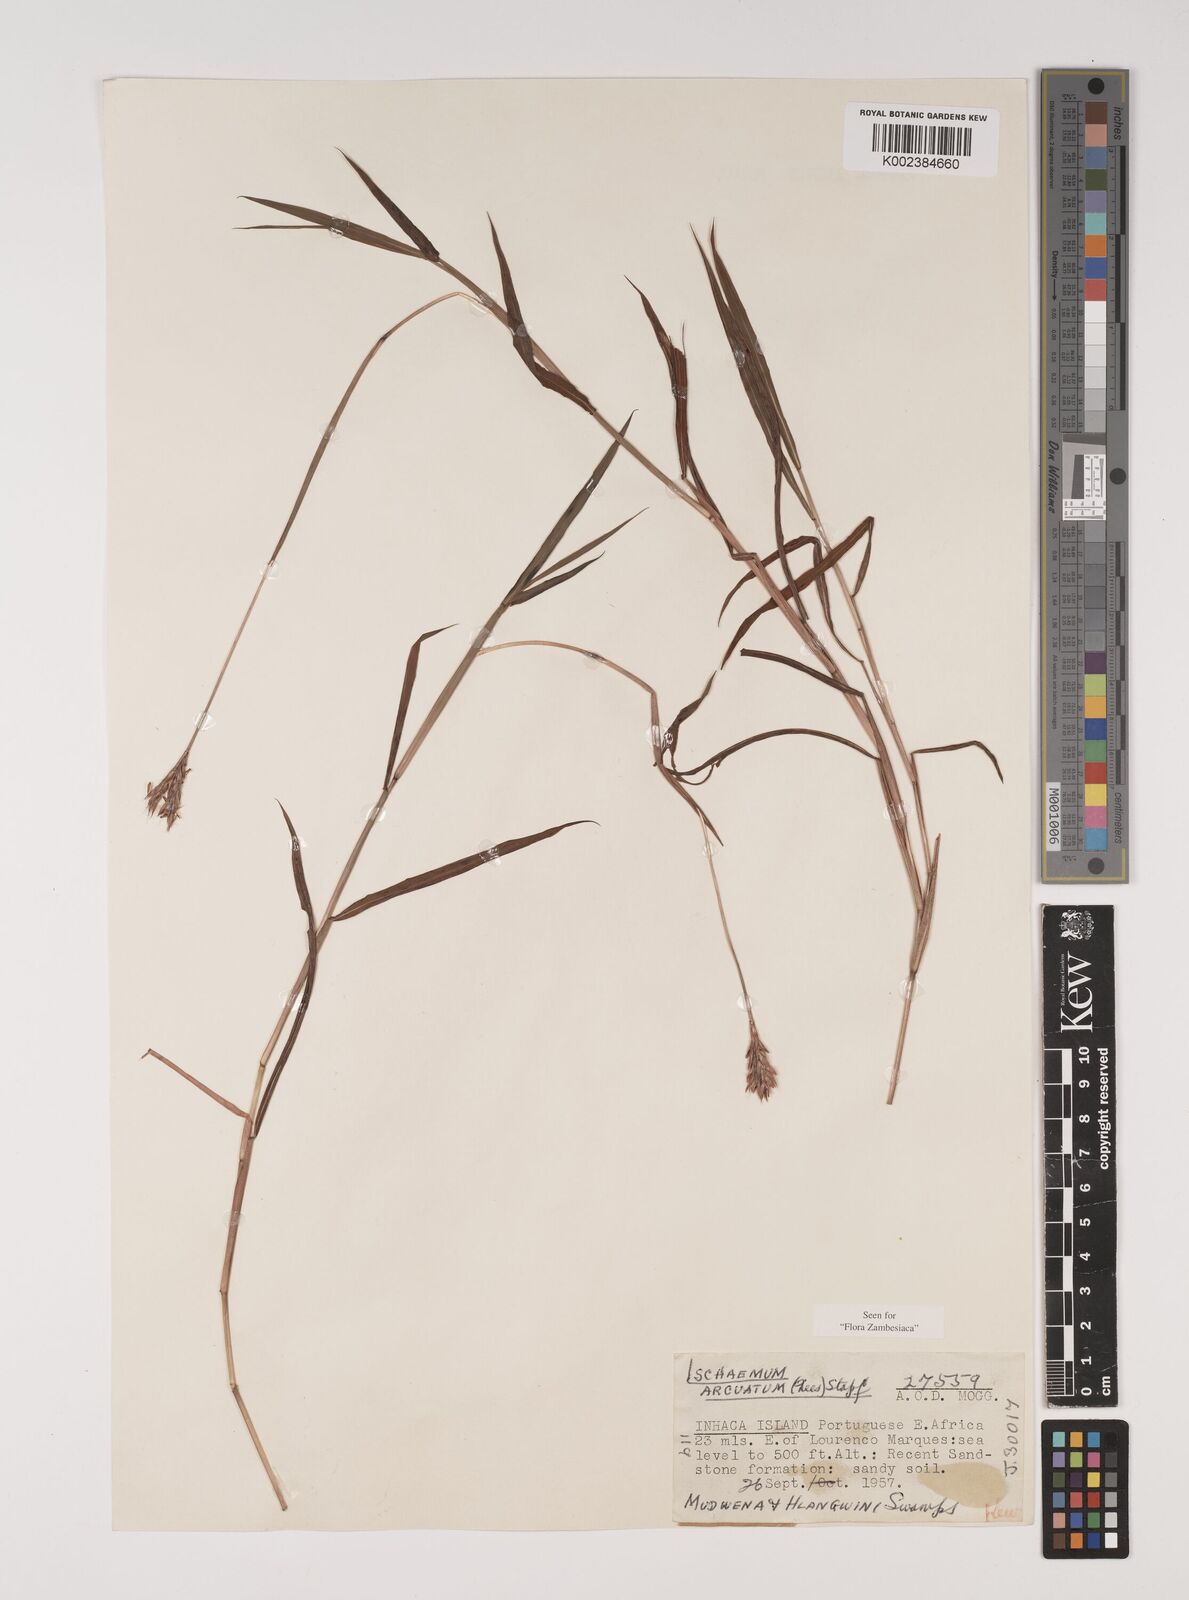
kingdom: Plantae
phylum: Tracheophyta
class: Liliopsida
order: Poales
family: Poaceae
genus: Ischaemum
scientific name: Ischaemum
